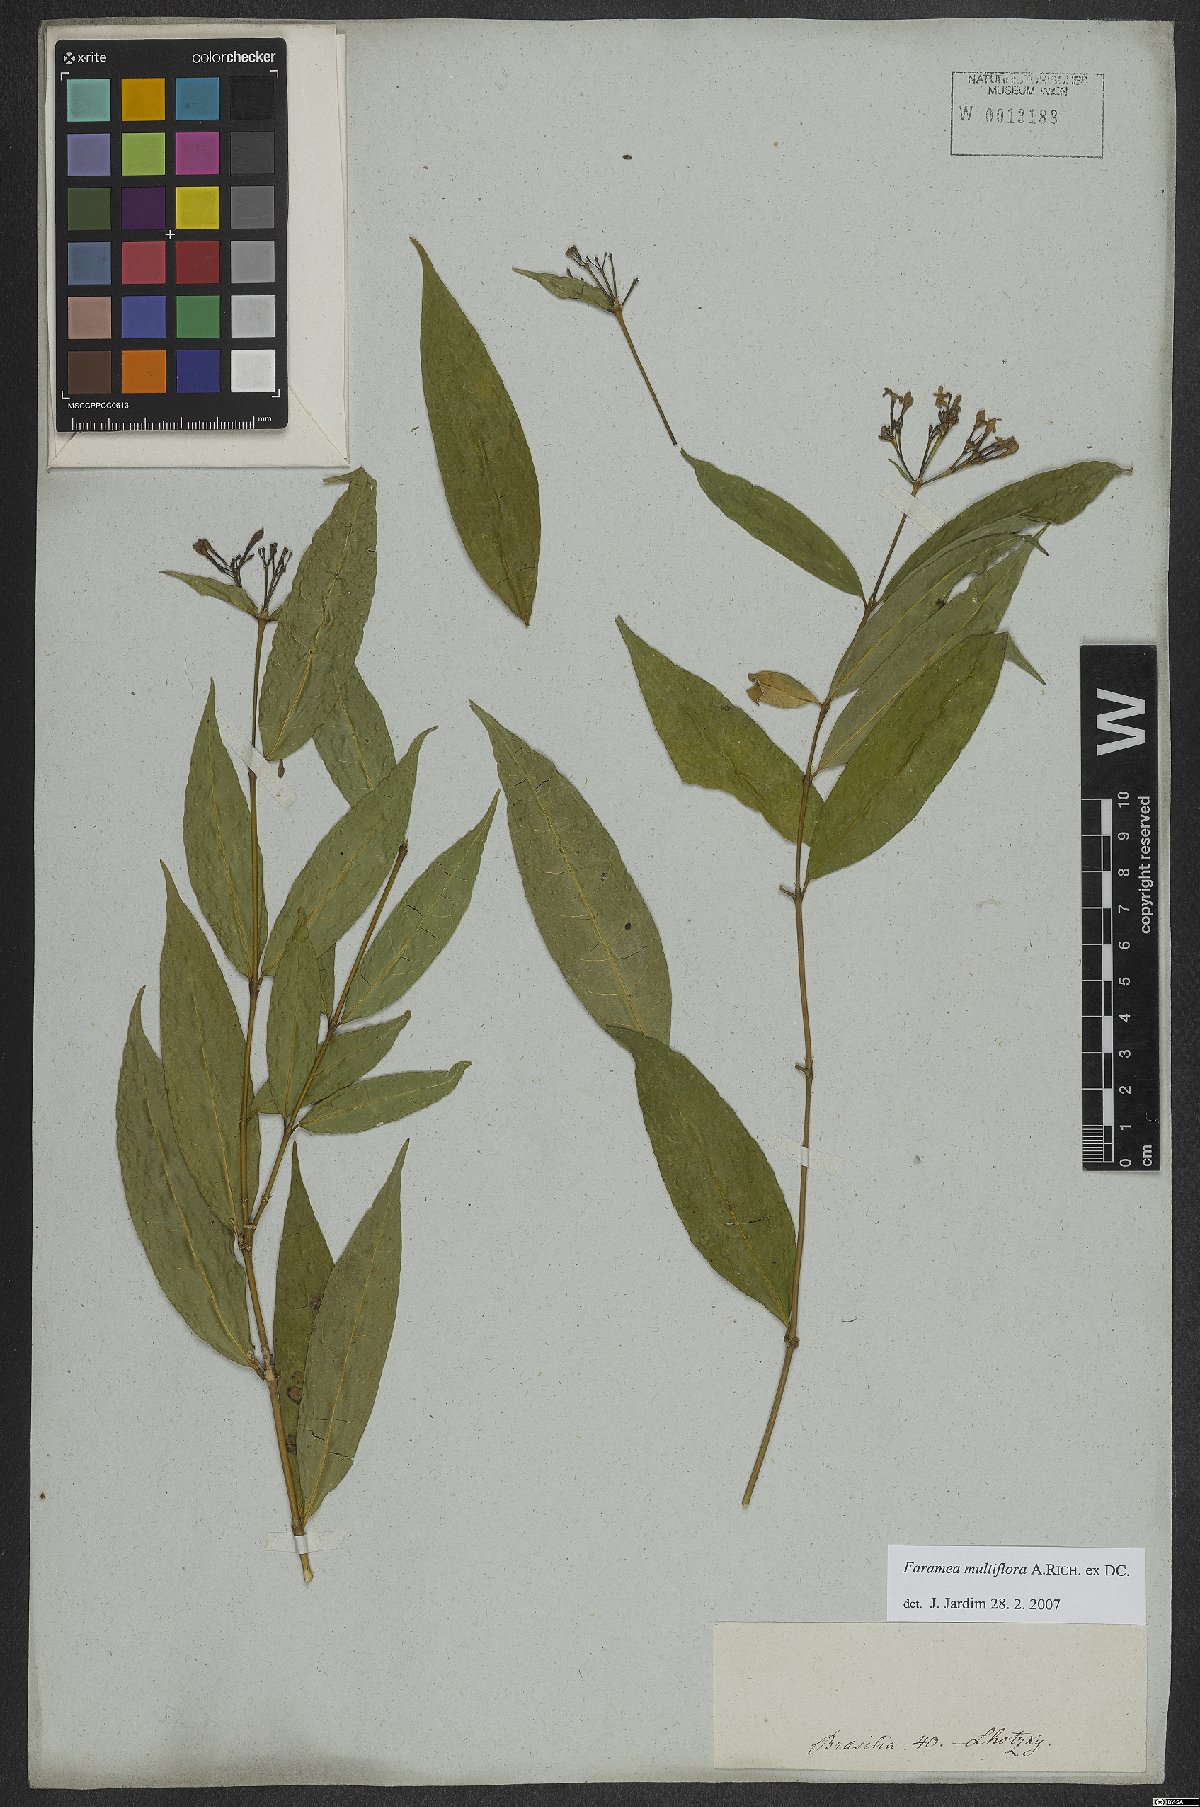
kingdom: Plantae
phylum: Tracheophyta
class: Magnoliopsida
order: Gentianales
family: Rubiaceae
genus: Faramea
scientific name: Faramea multiflora
